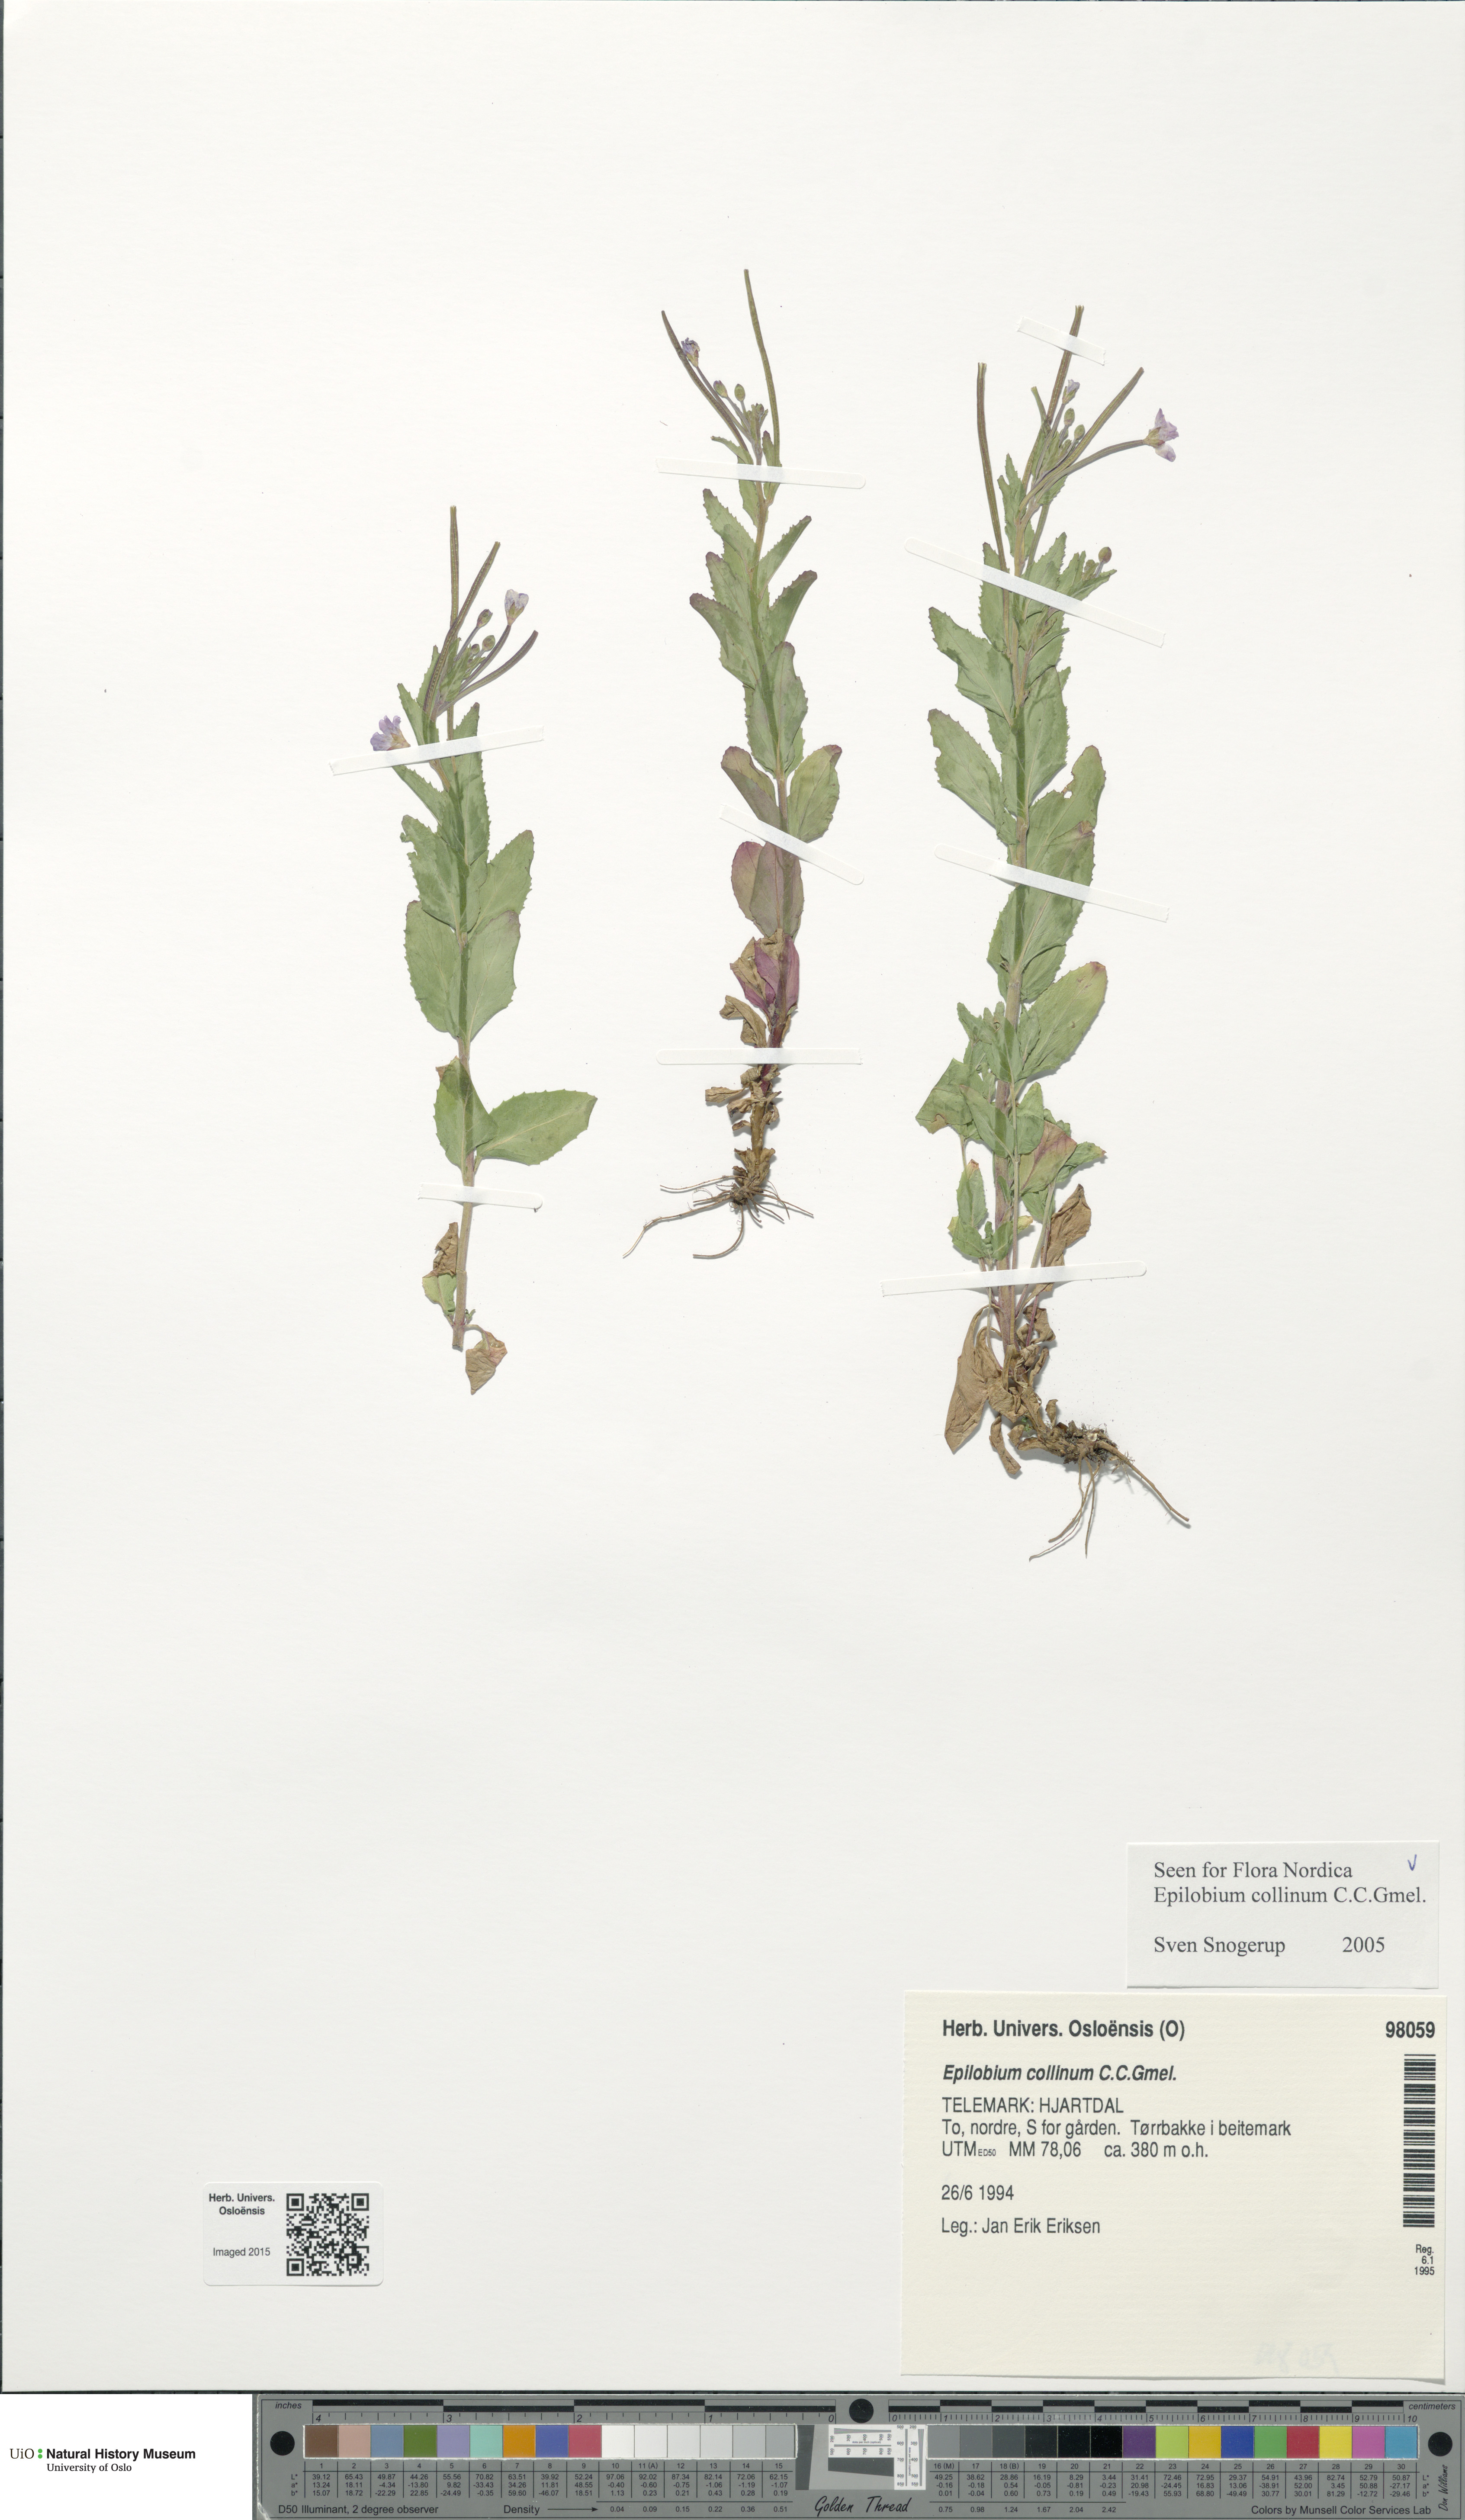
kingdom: Plantae
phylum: Tracheophyta
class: Magnoliopsida
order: Myrtales
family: Onagraceae
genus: Epilobium
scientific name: Epilobium collinum
